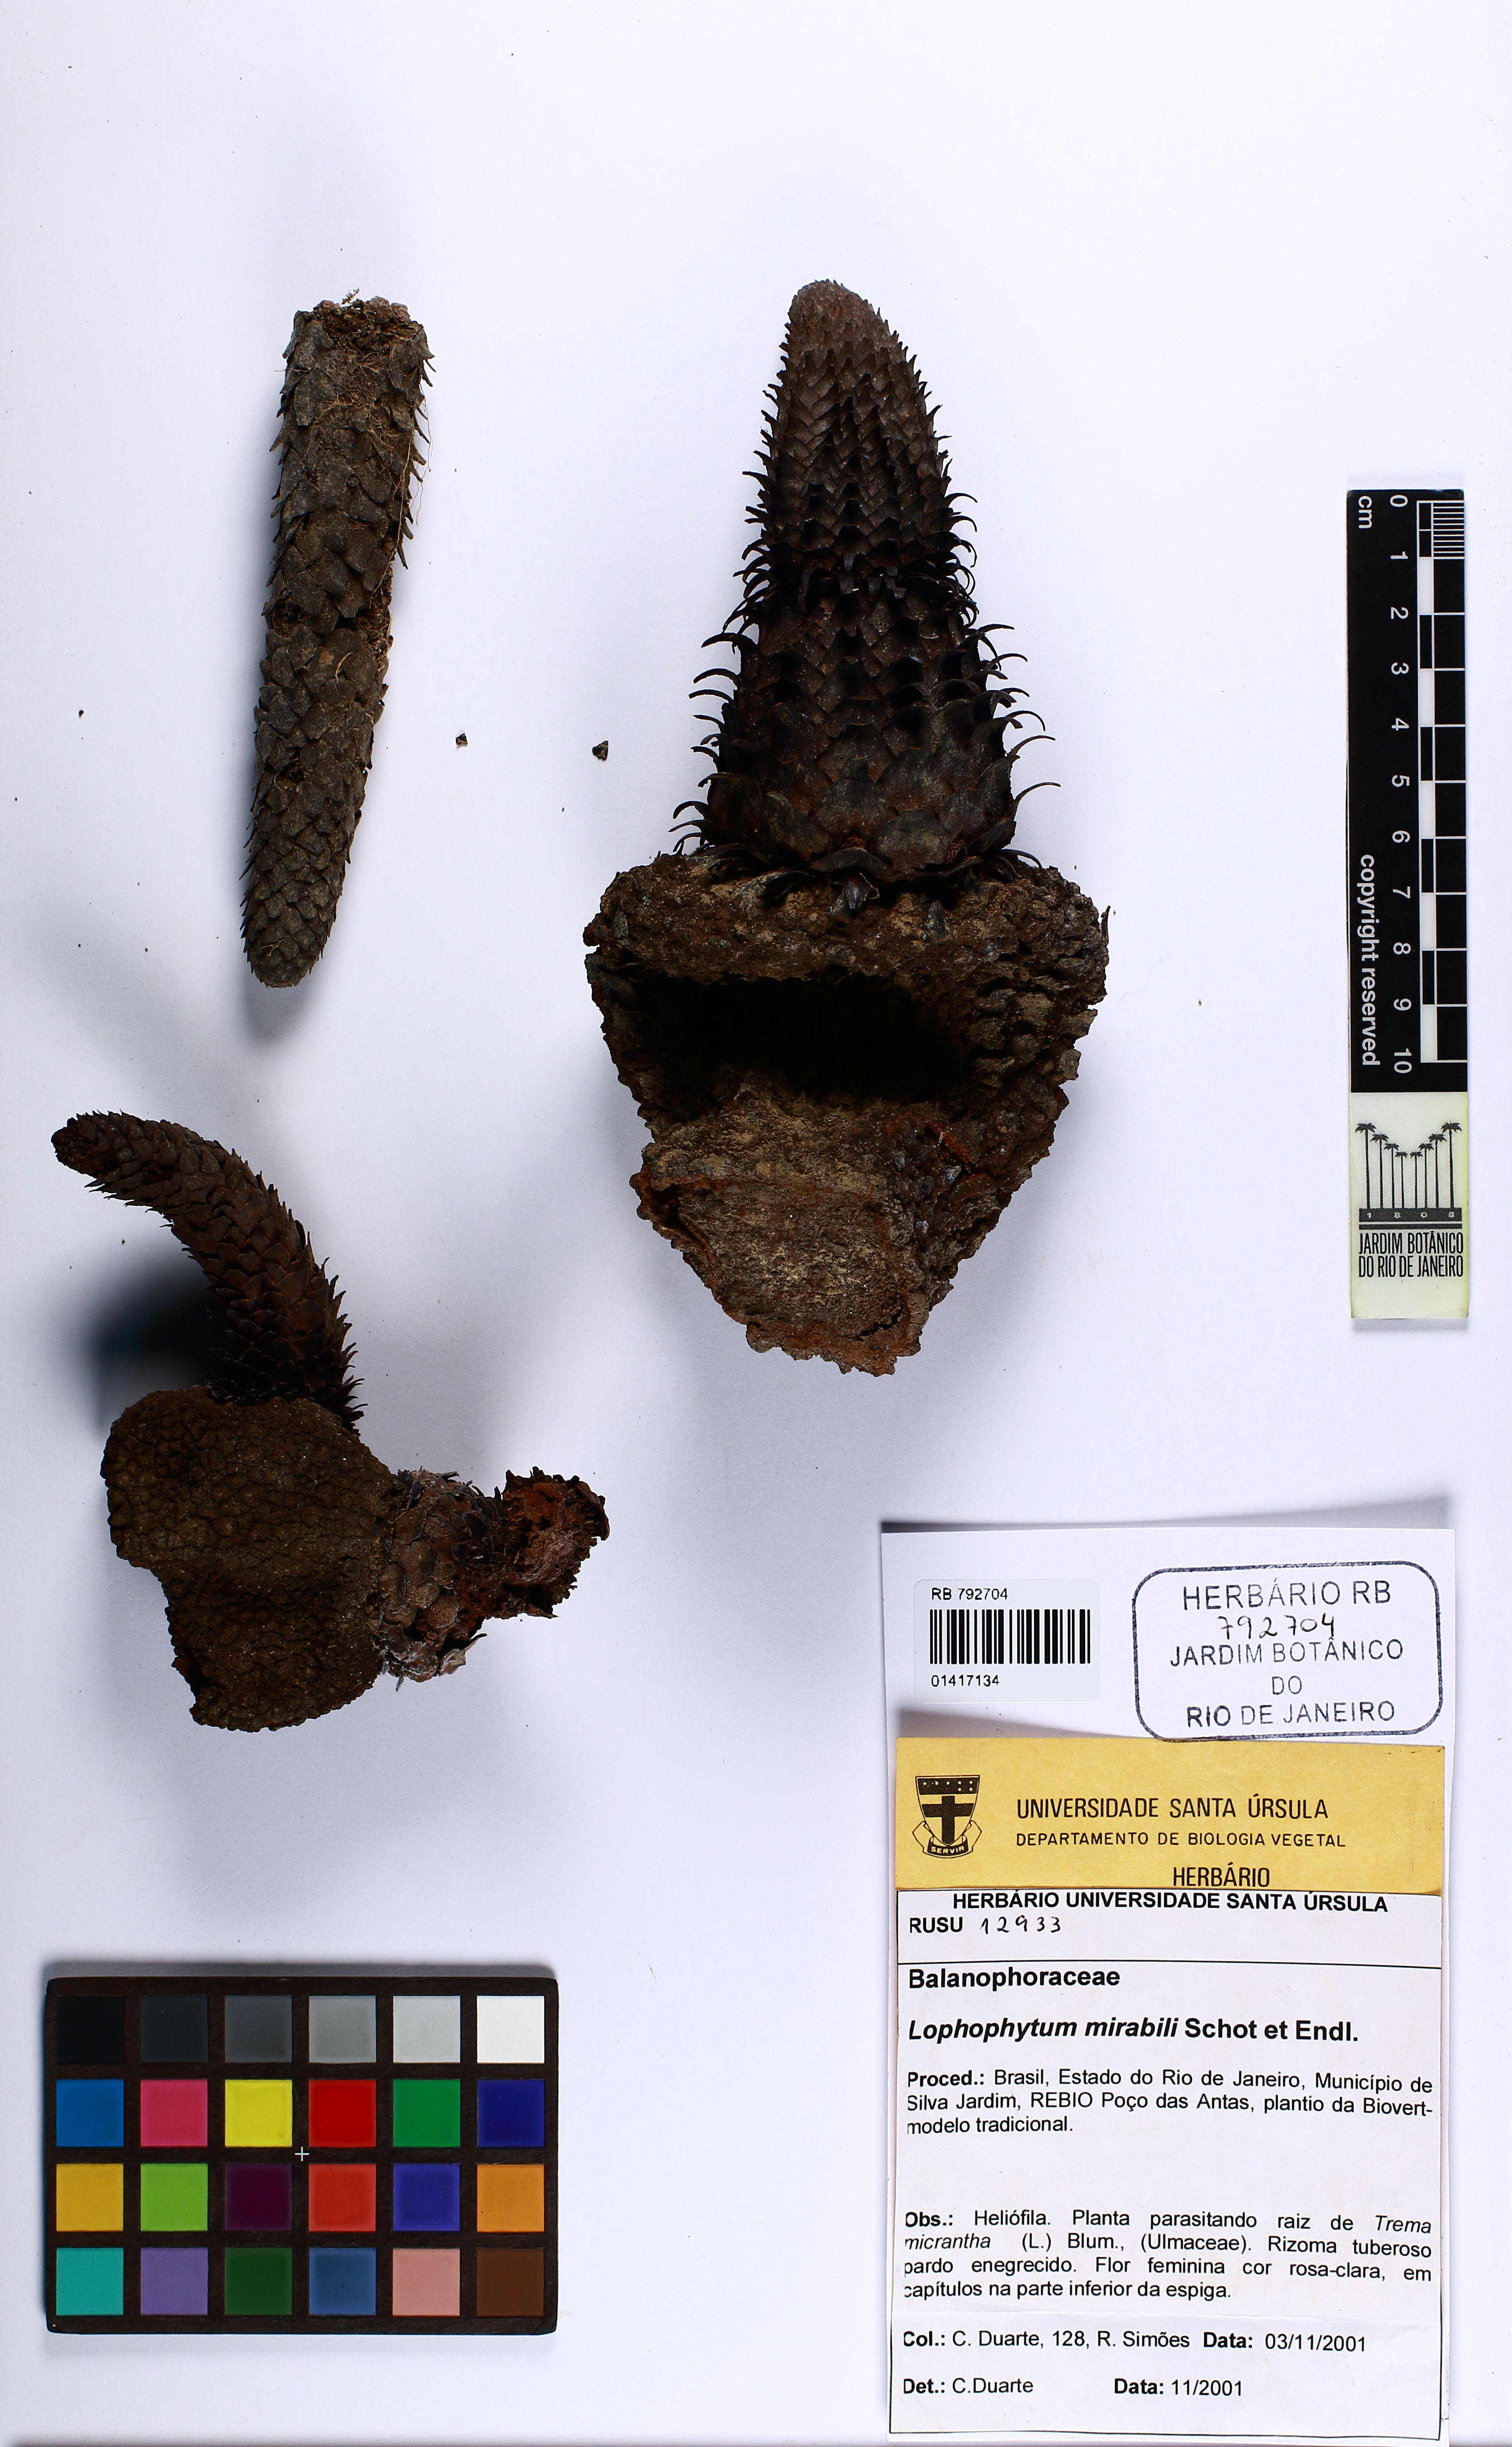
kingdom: Plantae
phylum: Tracheophyta
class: Magnoliopsida
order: Santalales
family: Balanophoraceae
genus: Lophophytum
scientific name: Lophophytum mirabile
